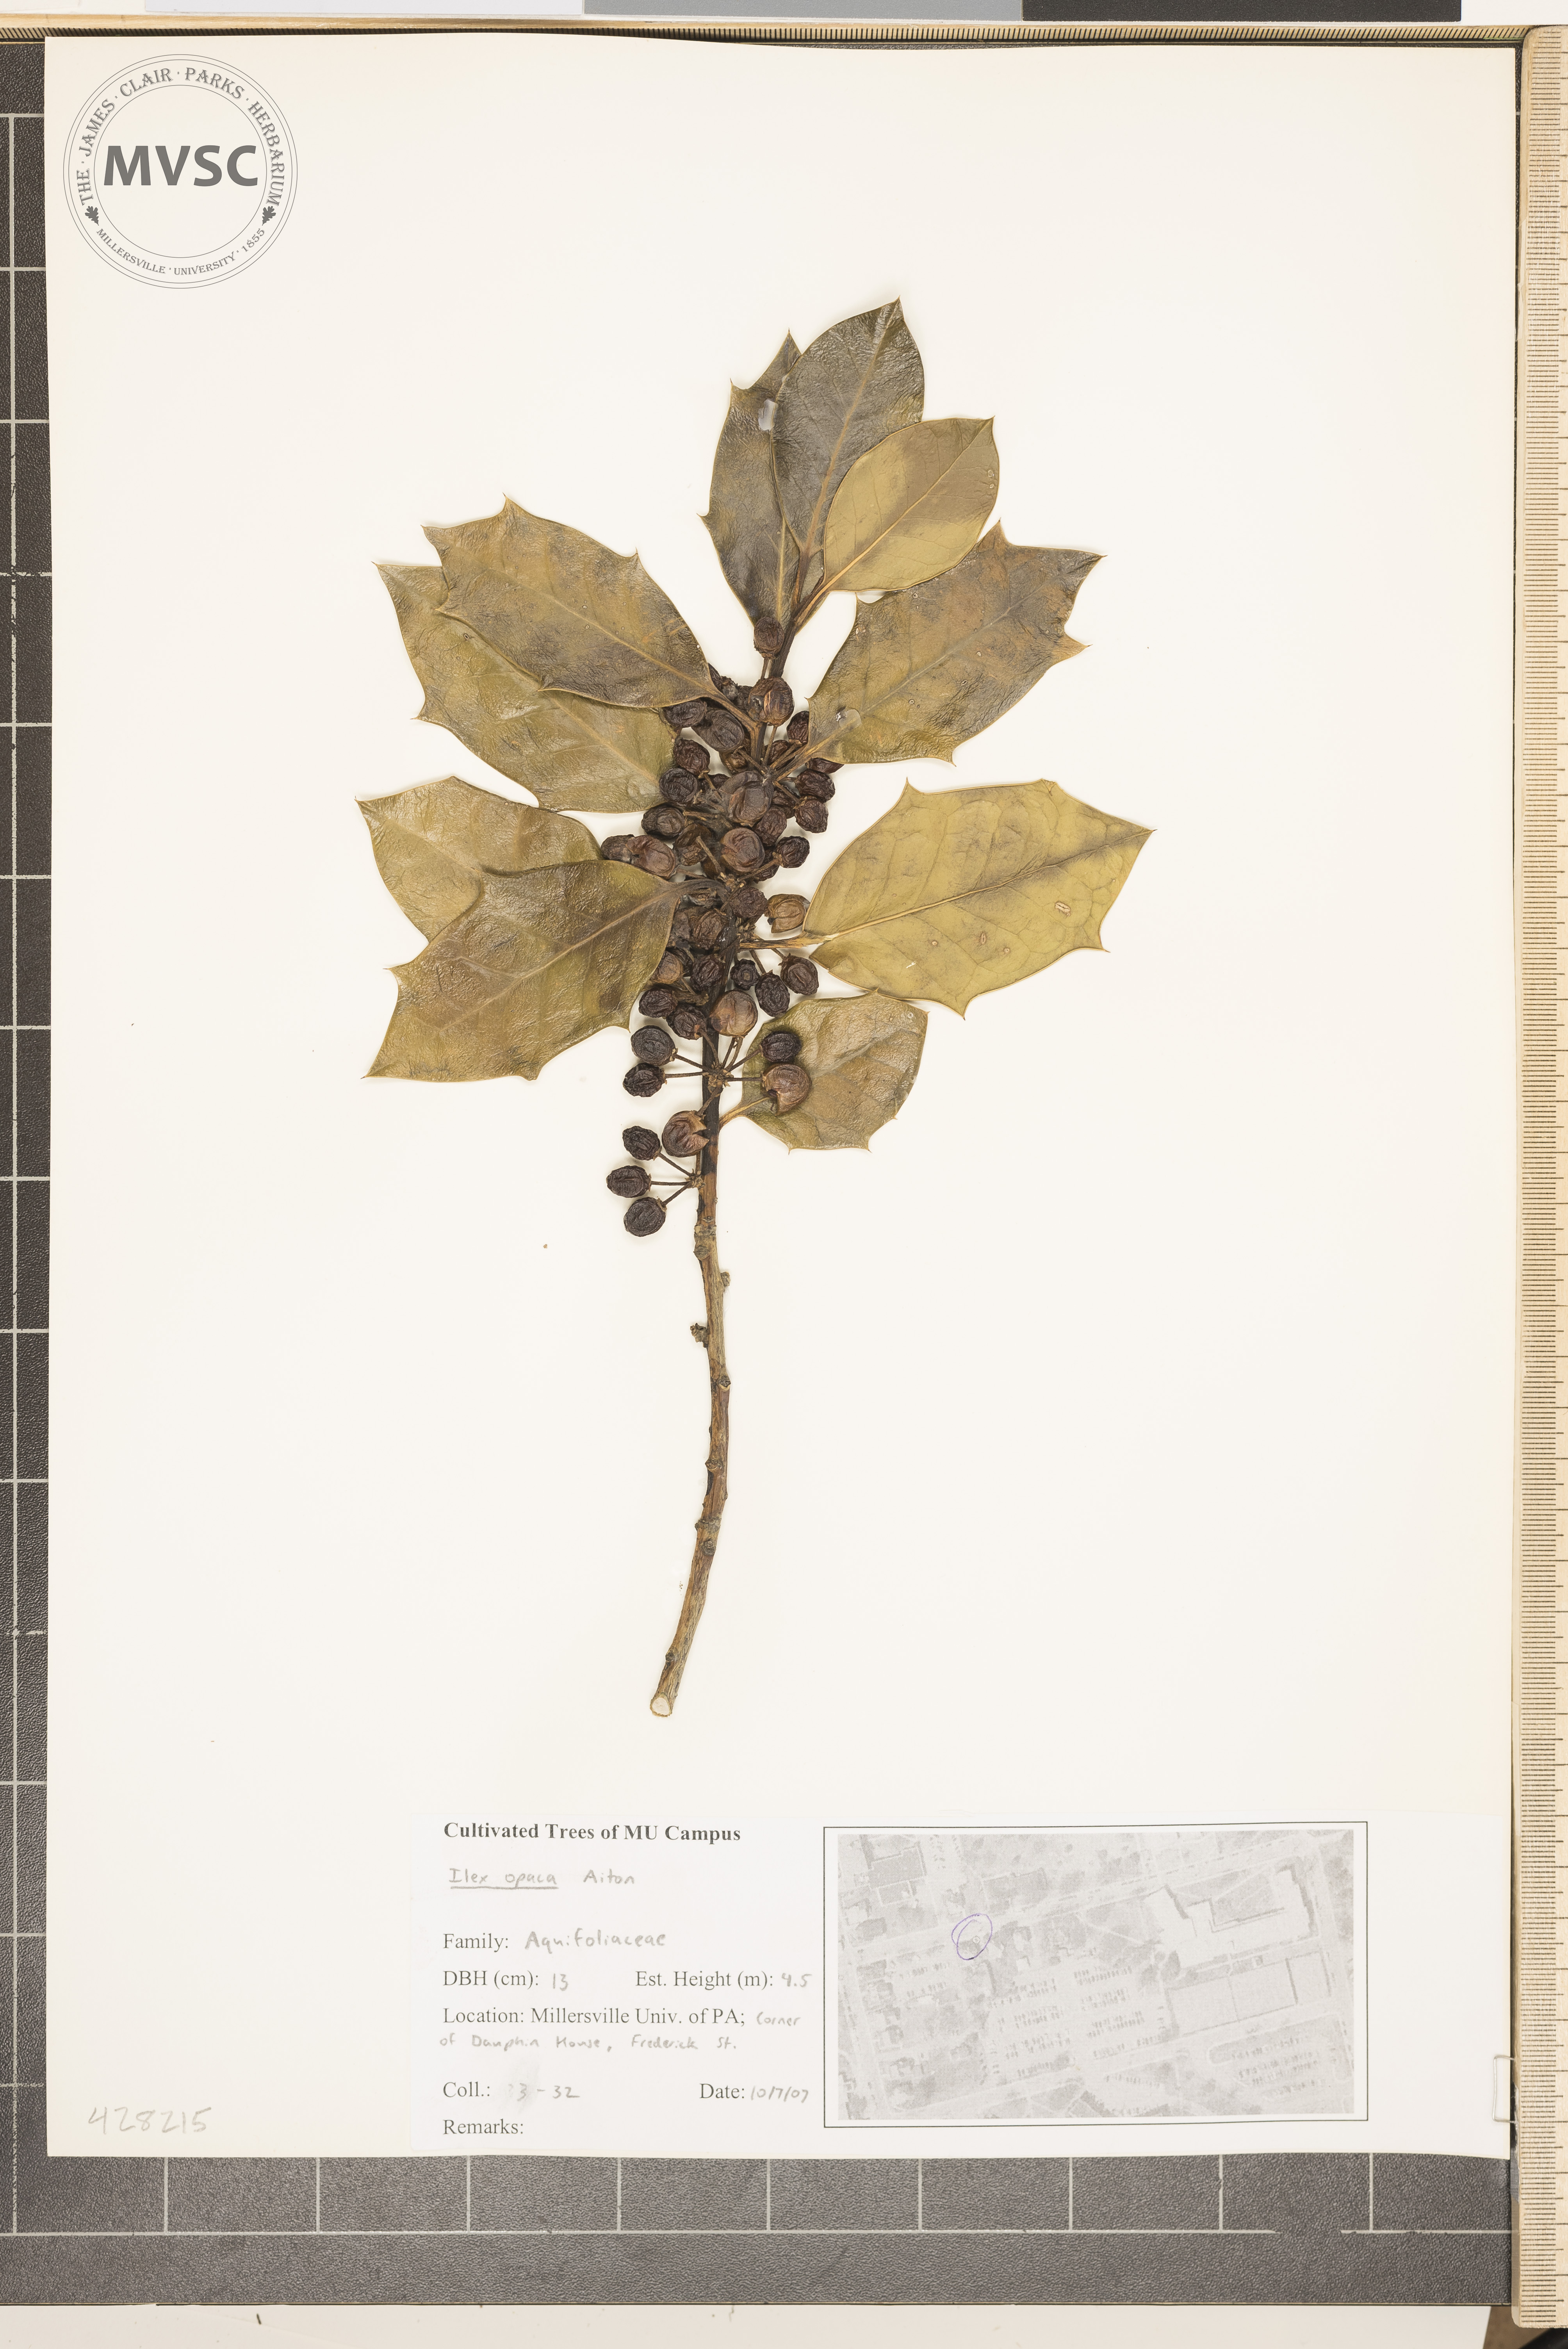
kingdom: Plantae
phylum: Tracheophyta
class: Magnoliopsida
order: Aquifoliales
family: Aquifoliaceae
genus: Ilex
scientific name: Ilex opaca
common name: American Holly
